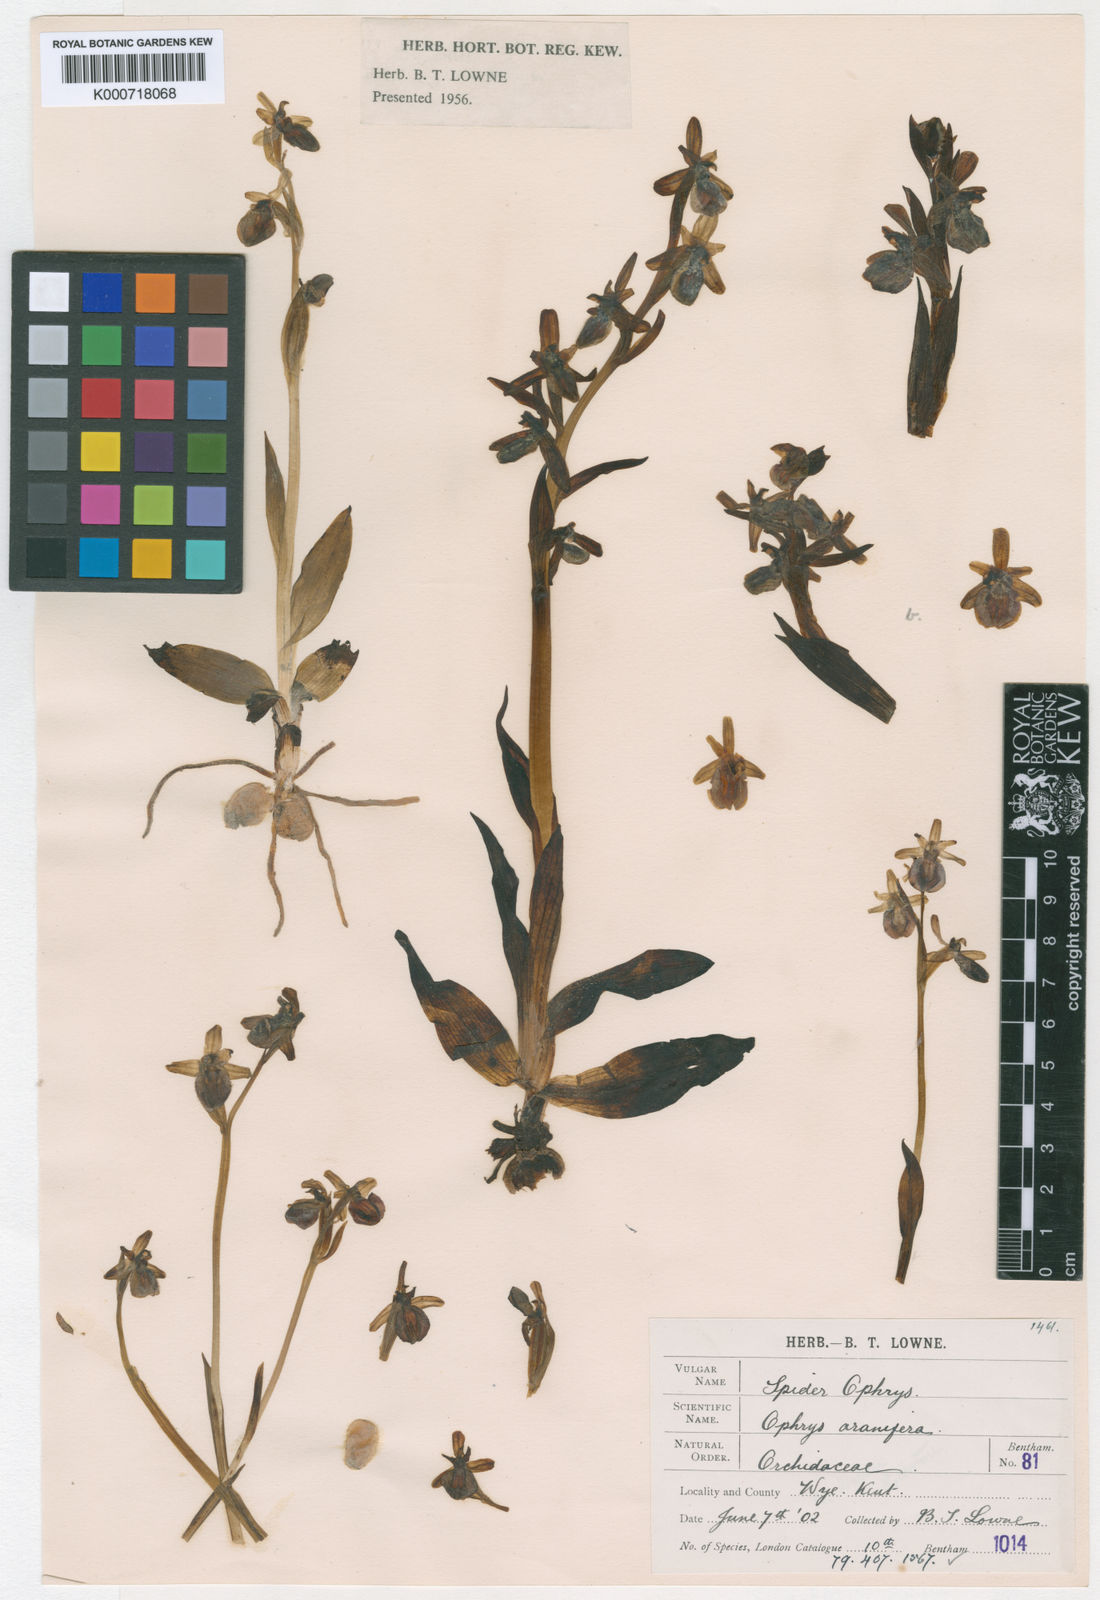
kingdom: Plantae
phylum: Tracheophyta
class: Liliopsida
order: Asparagales
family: Orchidaceae
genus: Ophrys
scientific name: Ophrys sphegodes
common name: Early spider-orchid
